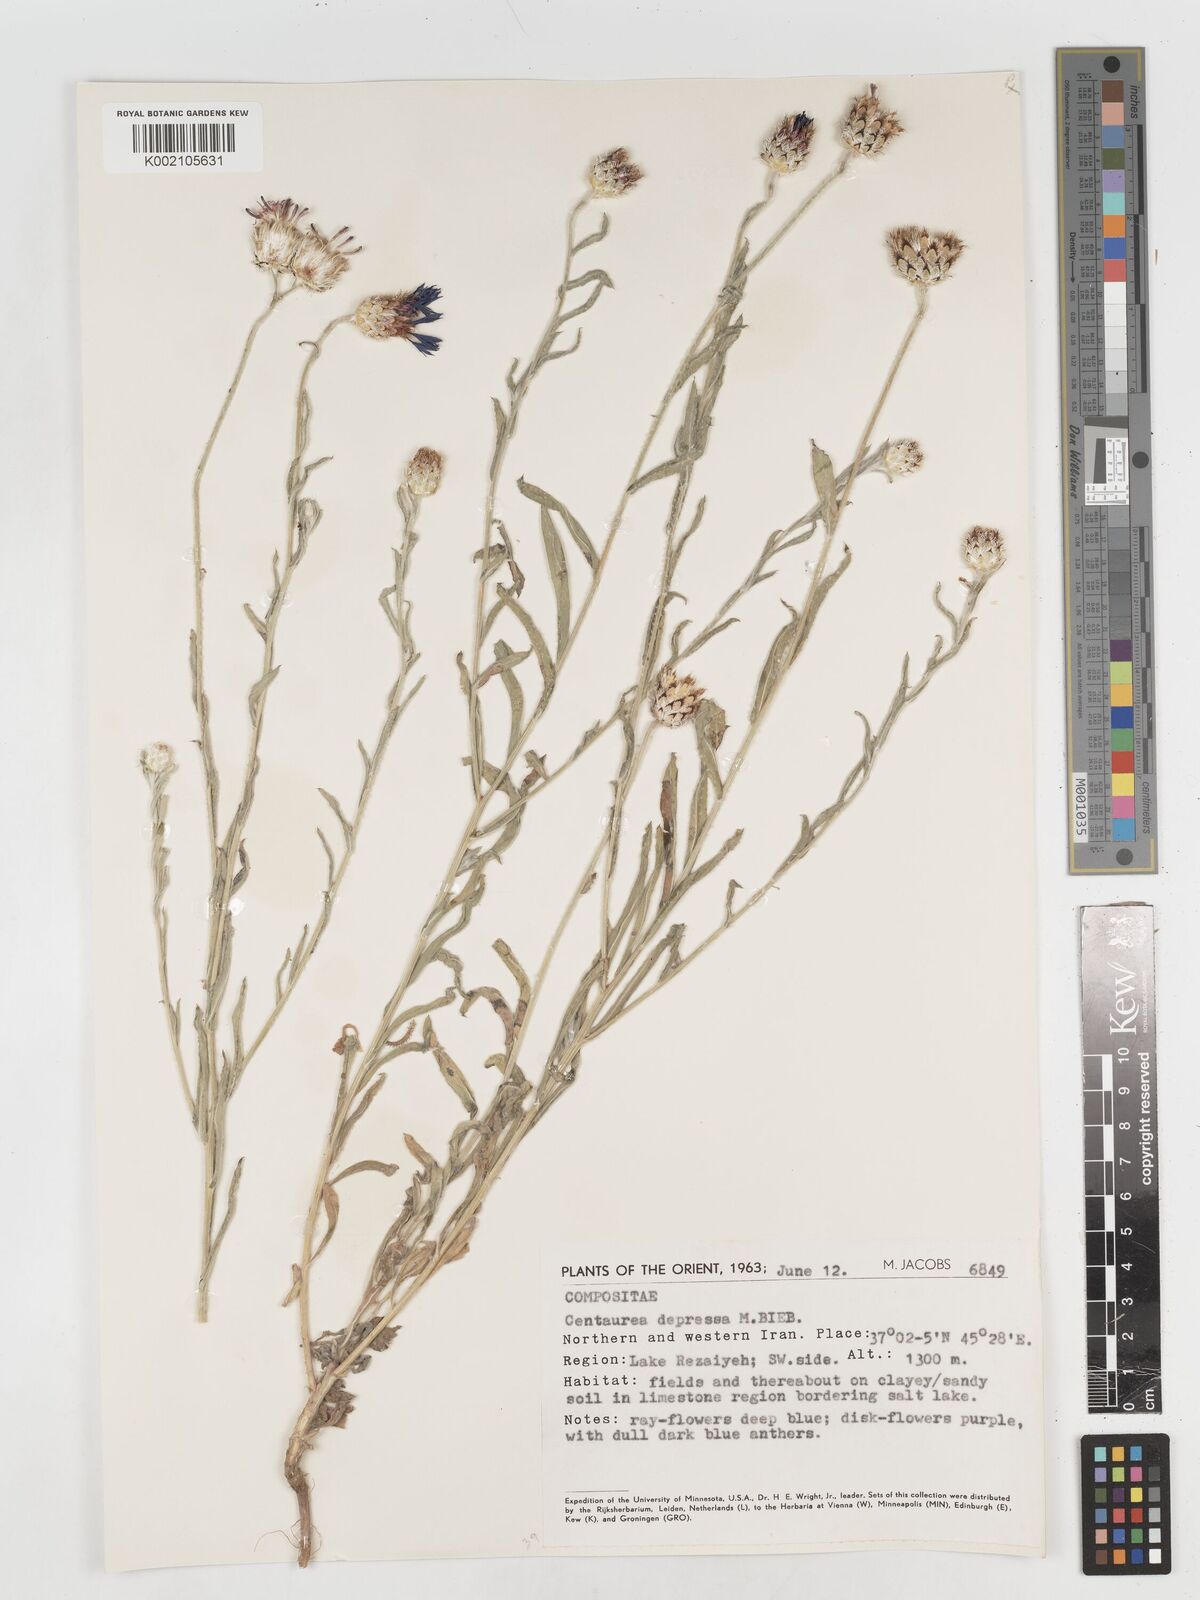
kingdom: Plantae
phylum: Tracheophyta
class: Magnoliopsida
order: Asterales
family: Asteraceae
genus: Centaurea
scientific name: Centaurea depressa
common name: Iranian knapweed
